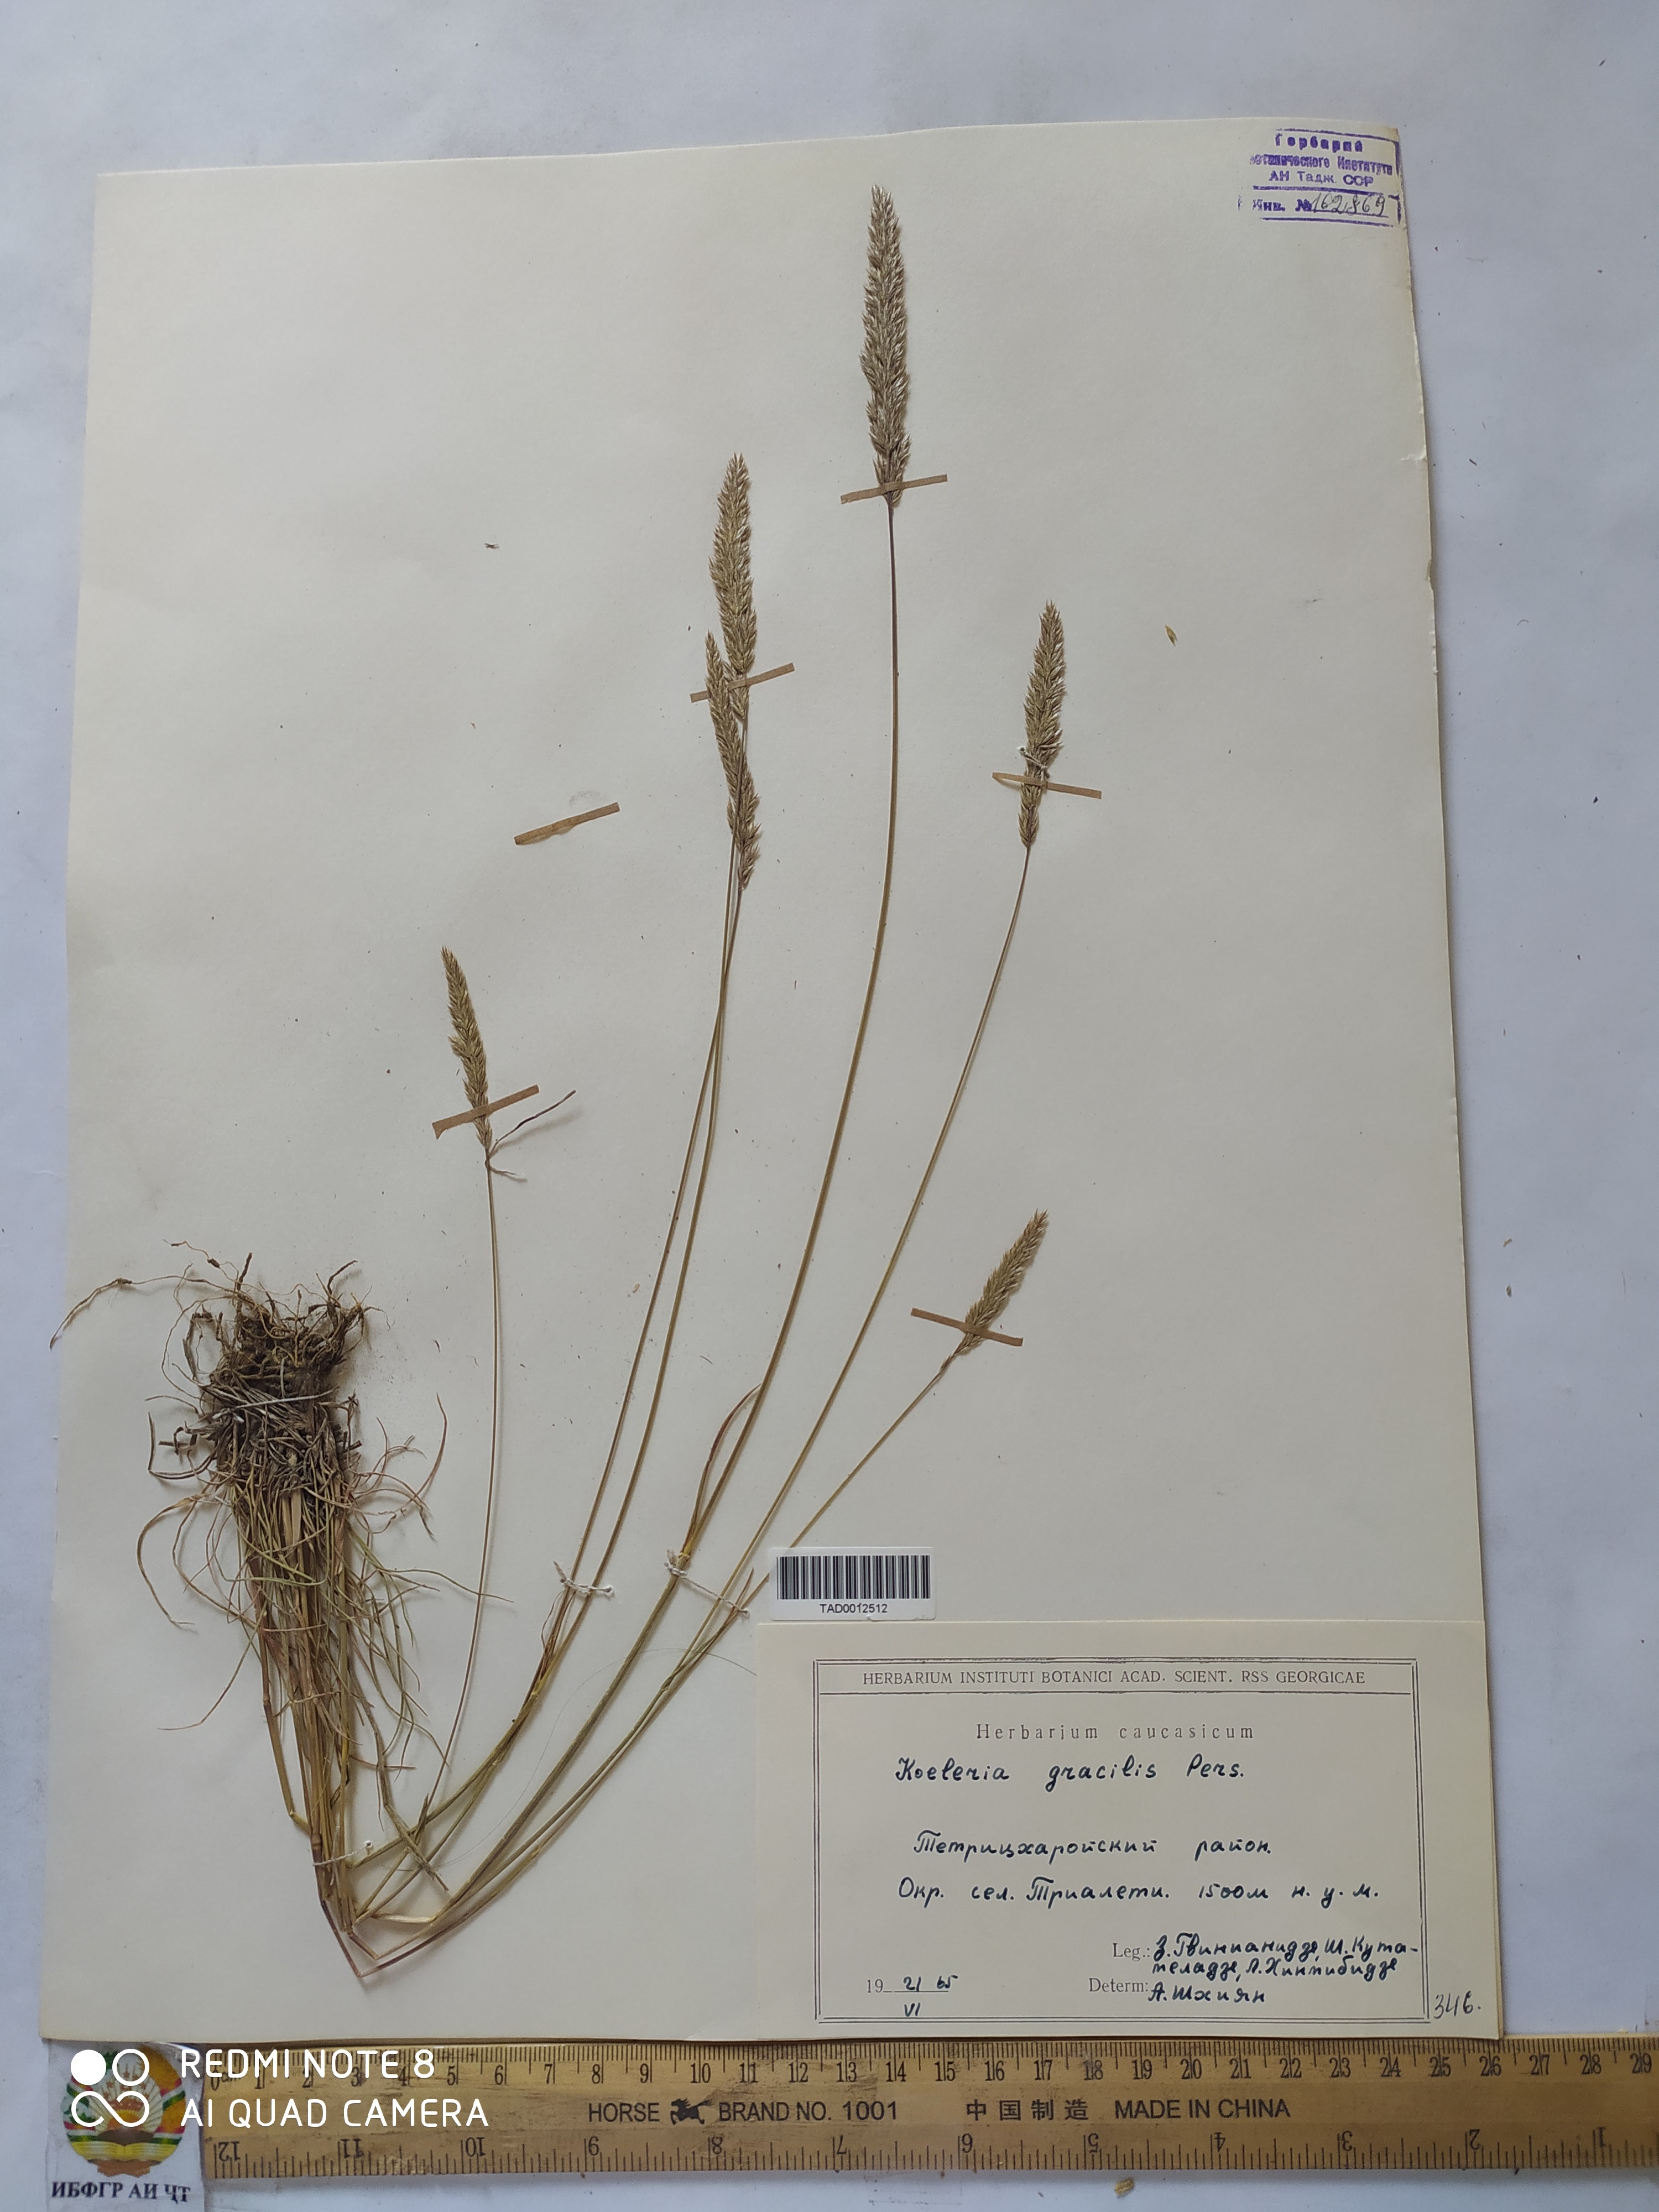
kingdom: Plantae
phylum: Tracheophyta
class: Liliopsida
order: Poales
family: Poaceae
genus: Koeleria
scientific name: Koeleria macrantha
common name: Crested hair-grass
